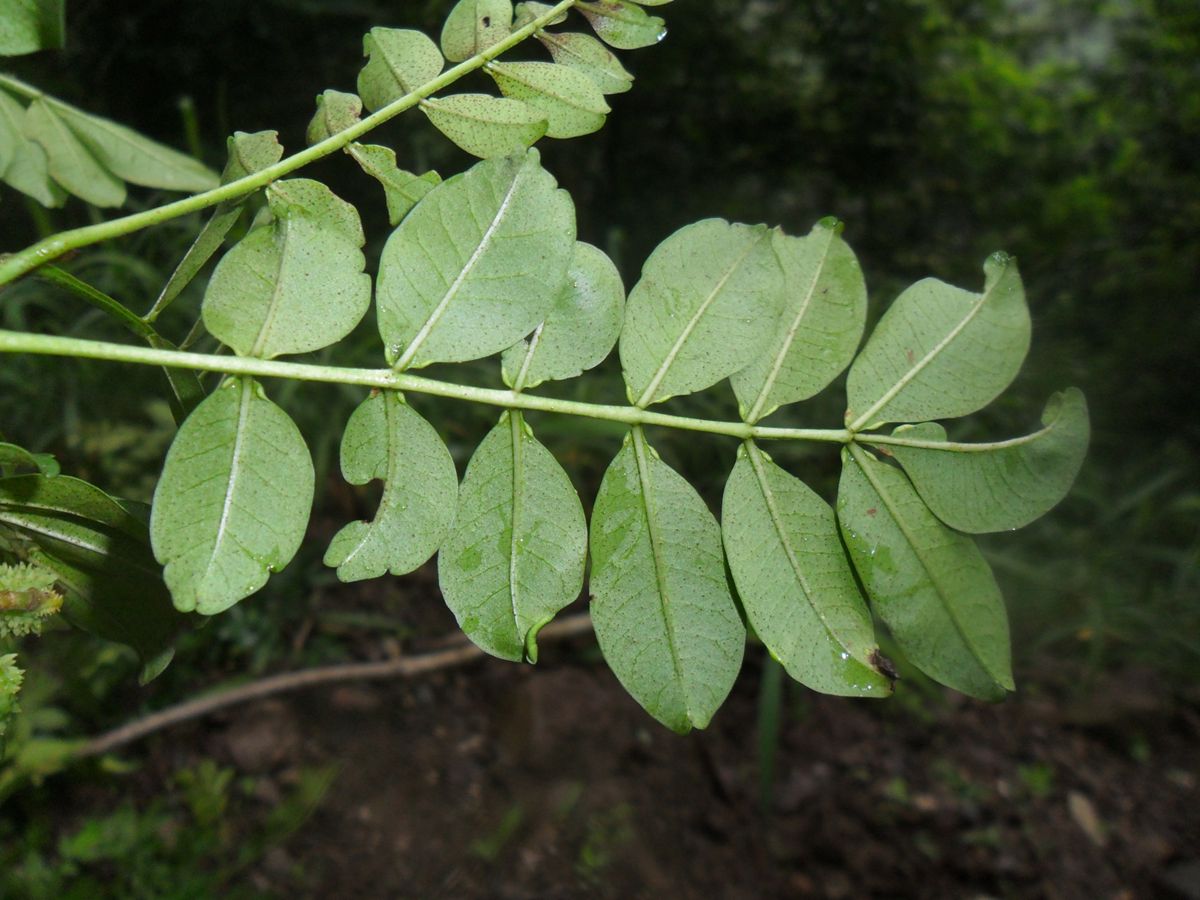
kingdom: Plantae
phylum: Tracheophyta
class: Magnoliopsida
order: Sapindales
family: Rutaceae
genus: Zanthoxylum
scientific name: Zanthoxylum fagara
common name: Lime prickly-ash
